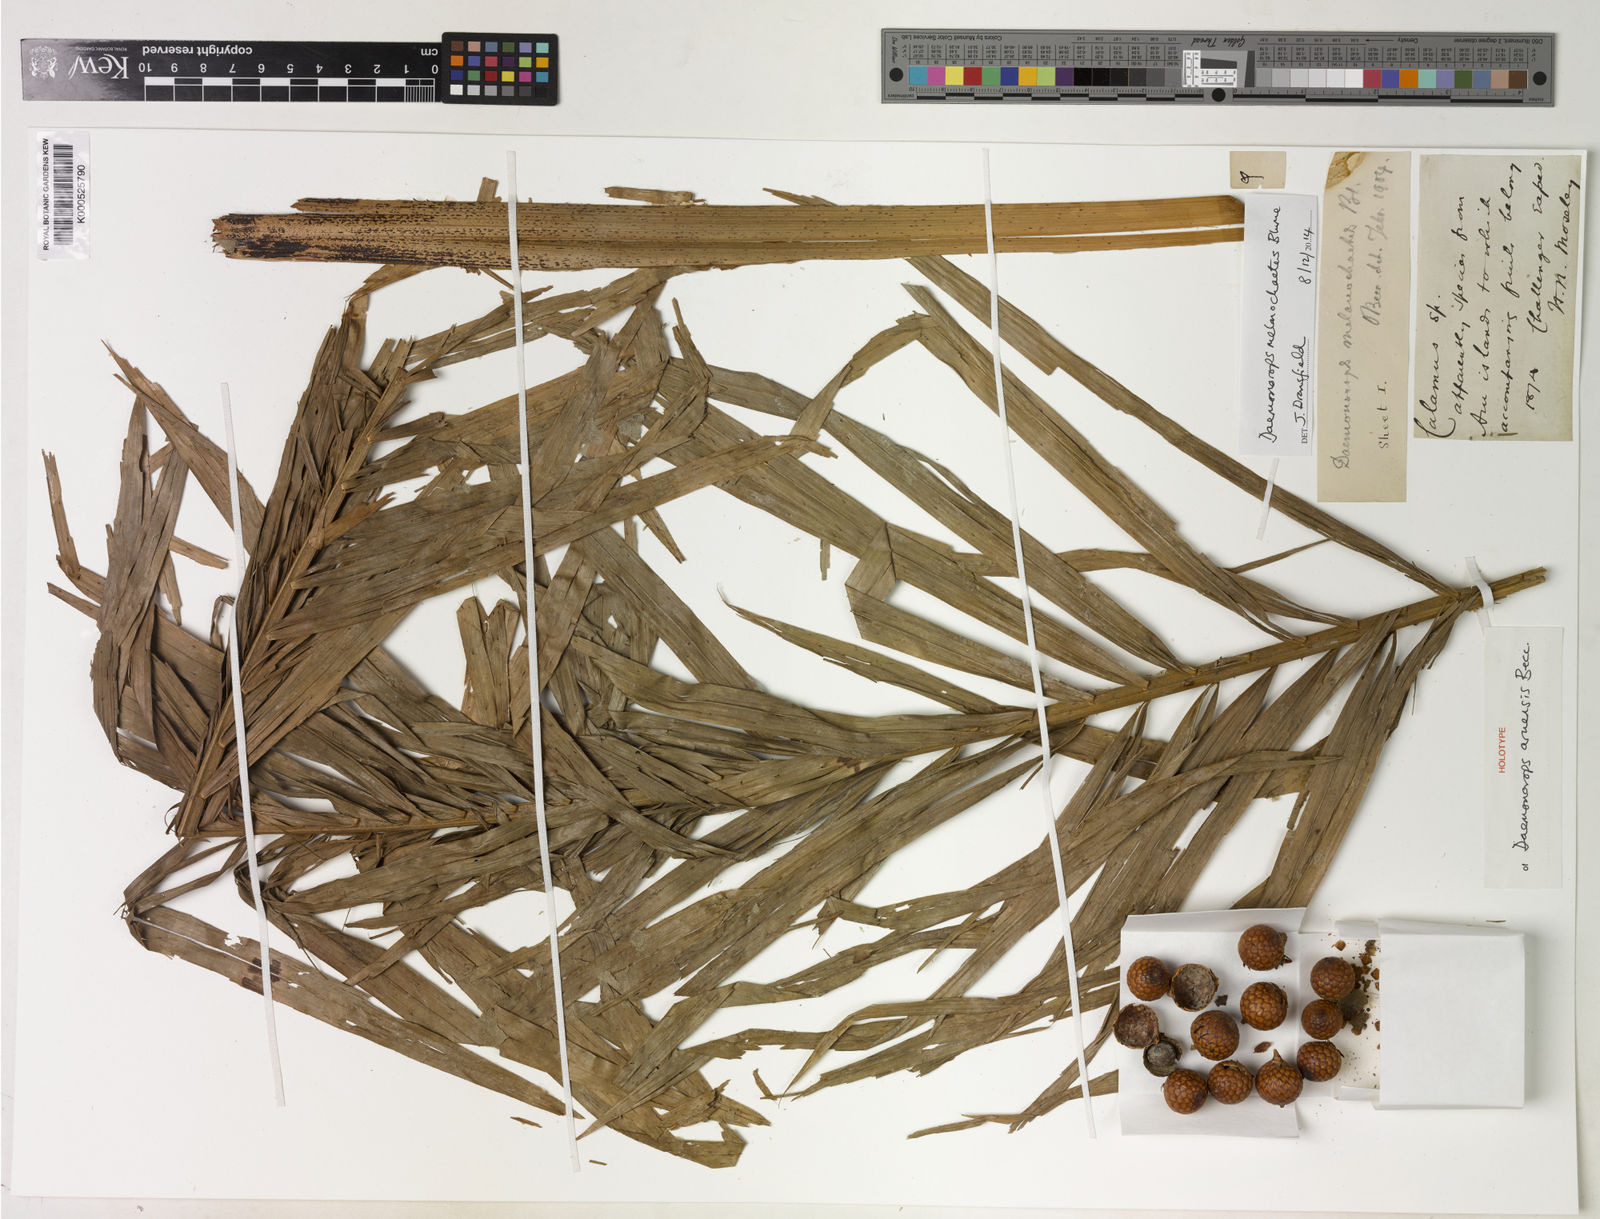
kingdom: Plantae
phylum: Tracheophyta
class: Liliopsida
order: Arecales
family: Arecaceae
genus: Calamus
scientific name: Calamus melanochaetes
